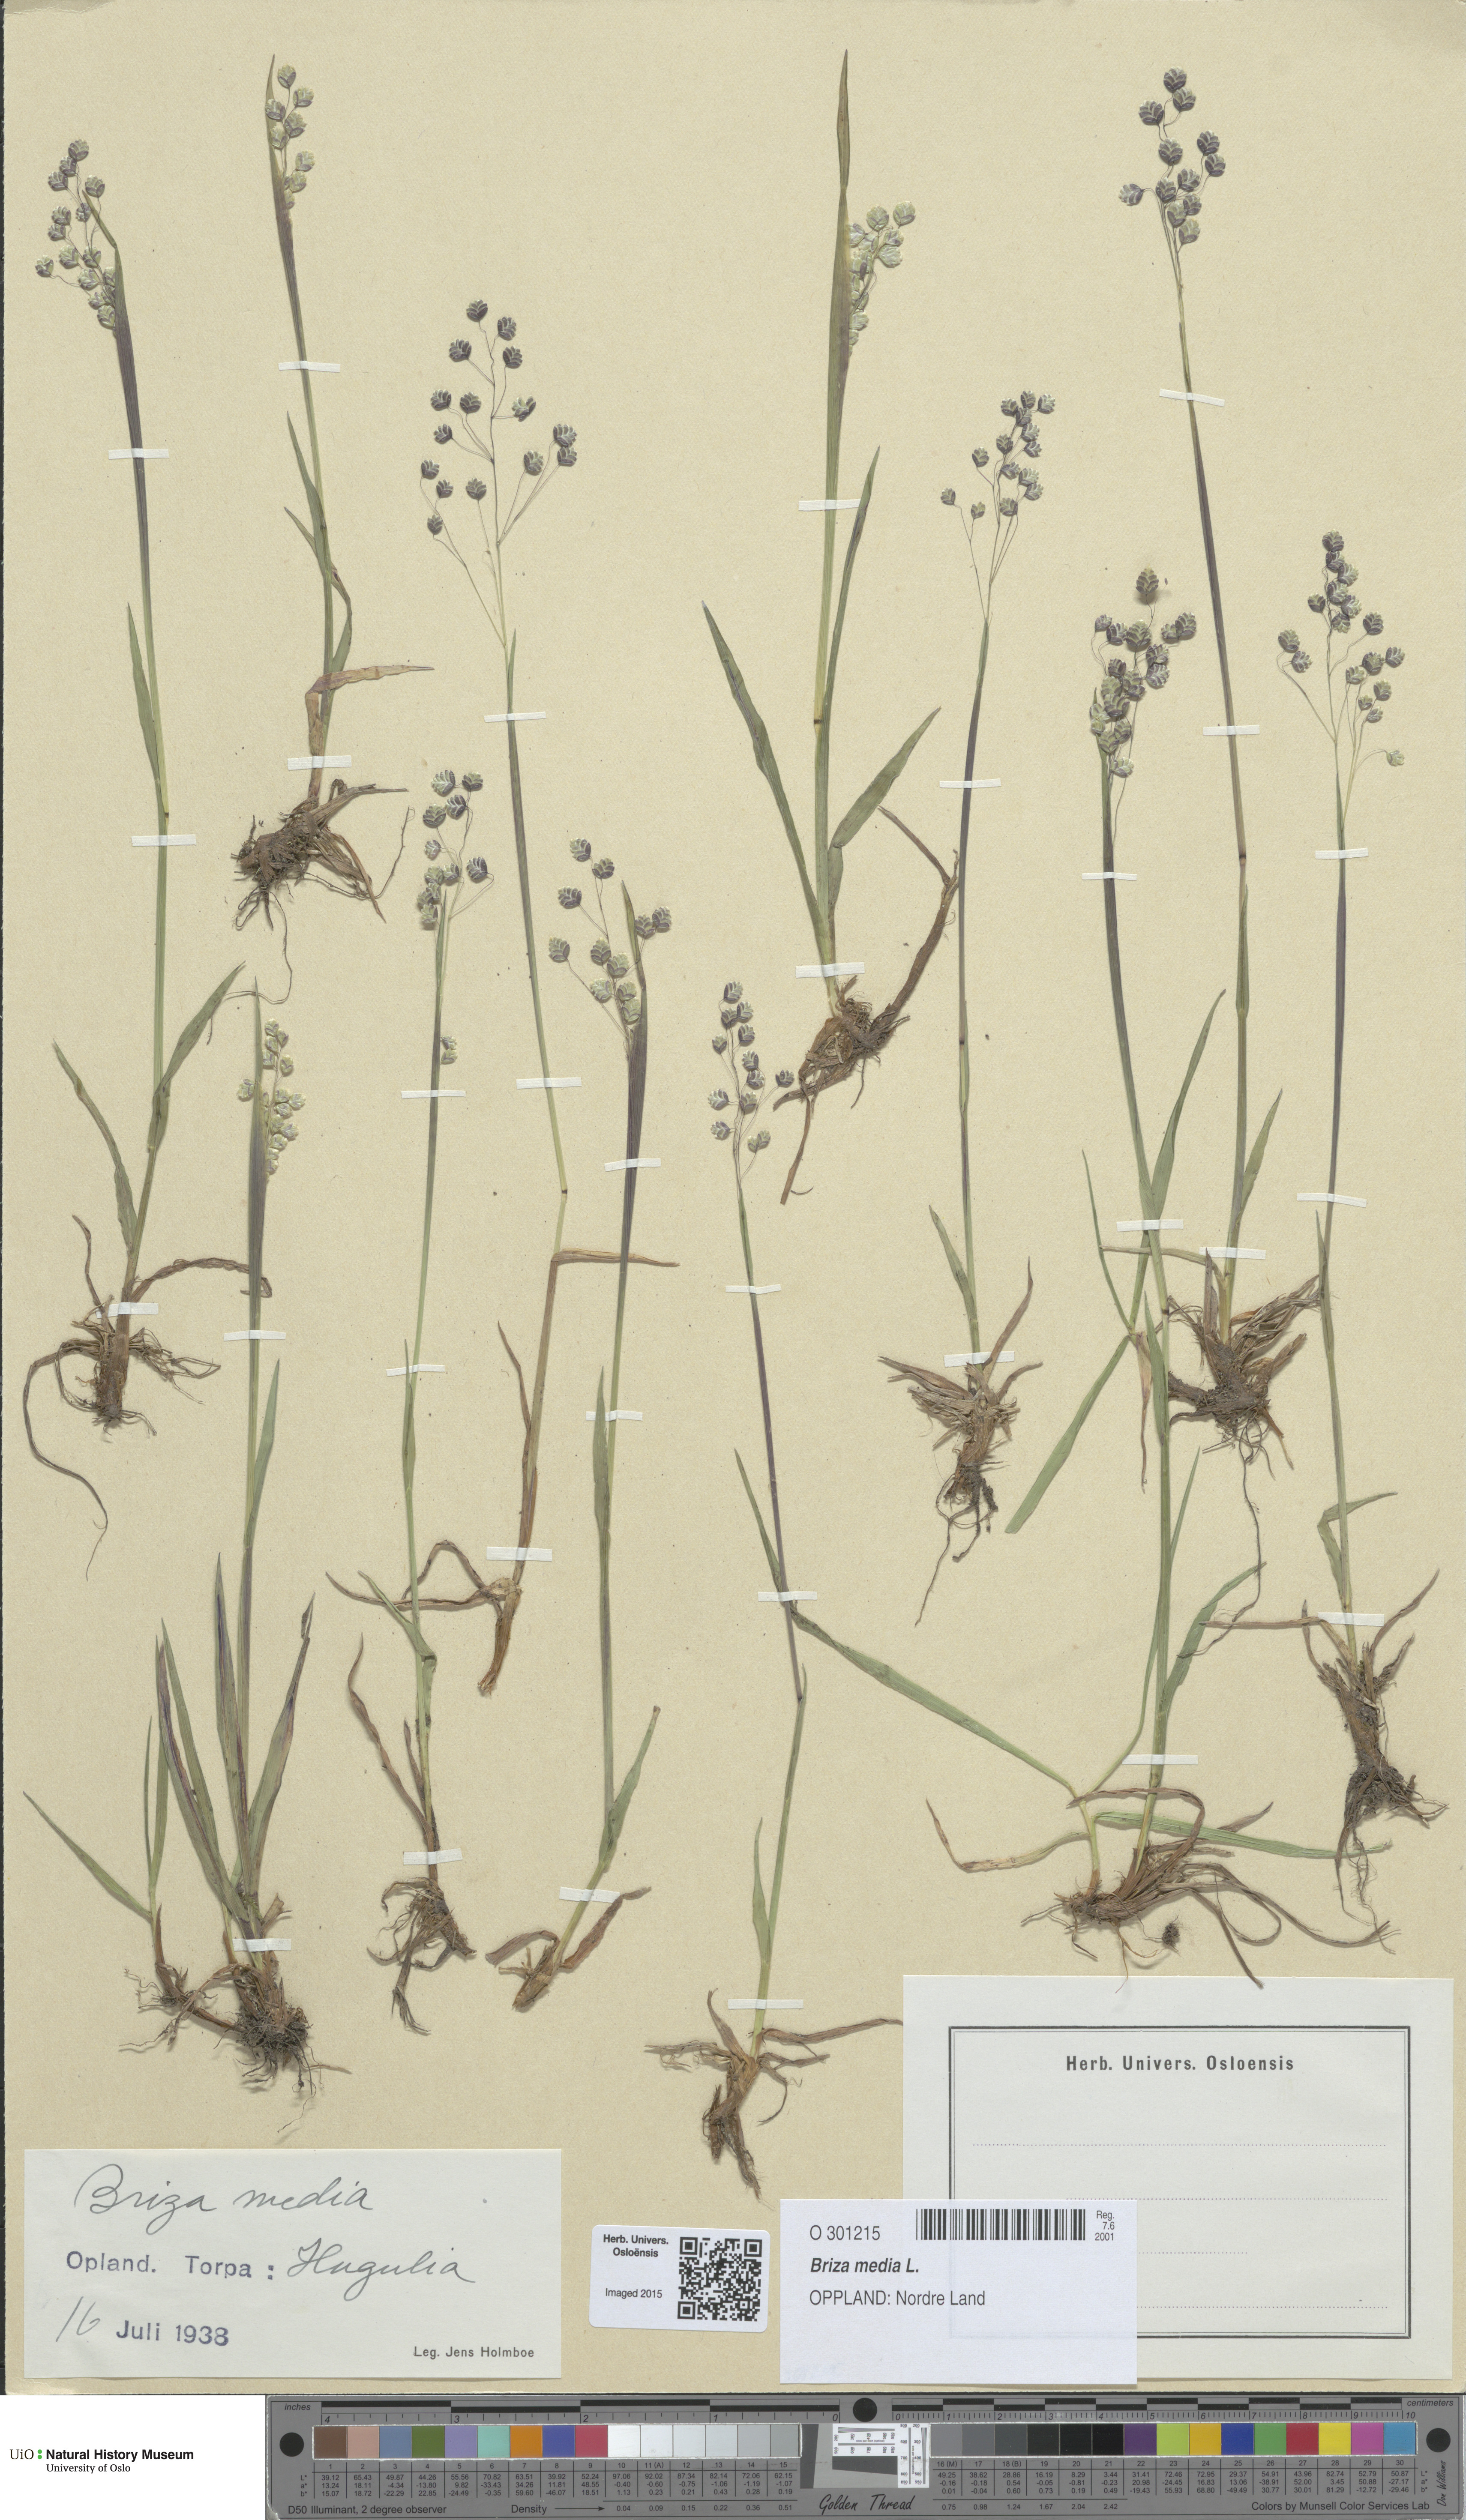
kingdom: Plantae
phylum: Tracheophyta
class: Liliopsida
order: Poales
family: Poaceae
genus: Briza
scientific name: Briza media
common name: Quaking grass
